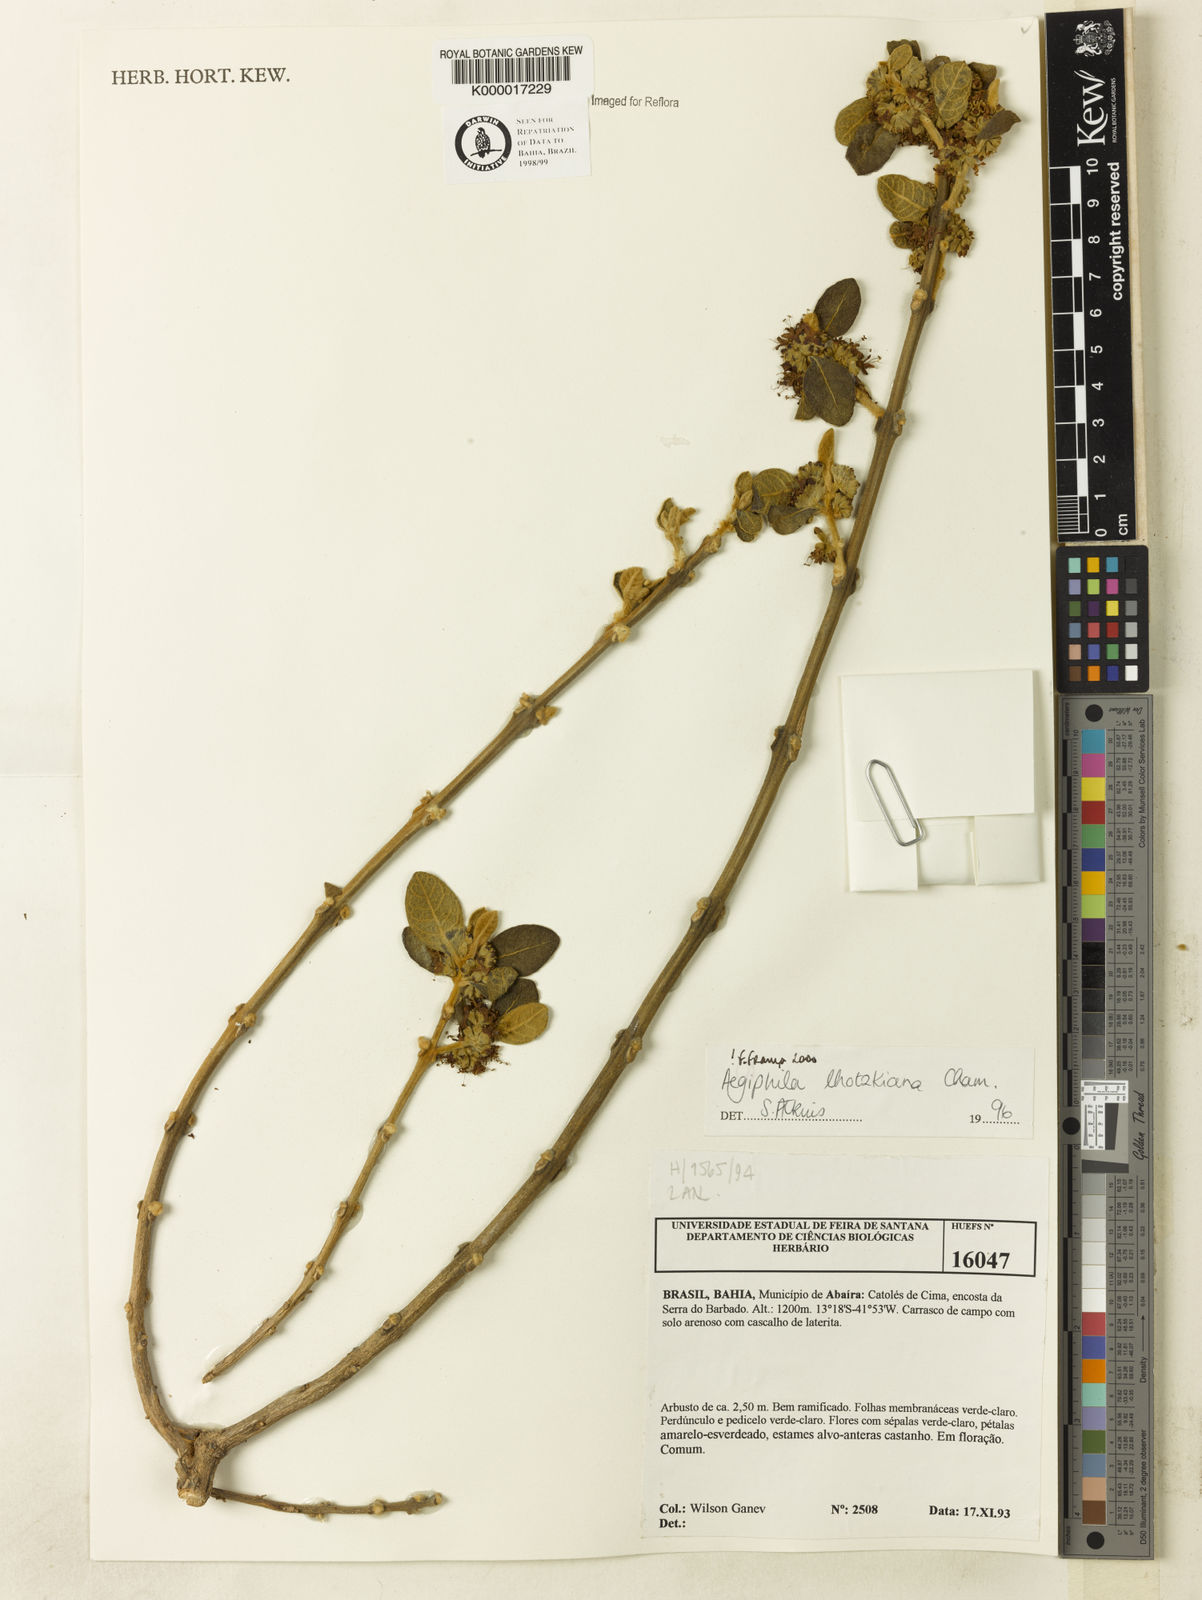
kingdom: Plantae
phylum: Tracheophyta
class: Magnoliopsida
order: Lamiales
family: Lamiaceae
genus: Aegiphila
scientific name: Aegiphila verticillata
